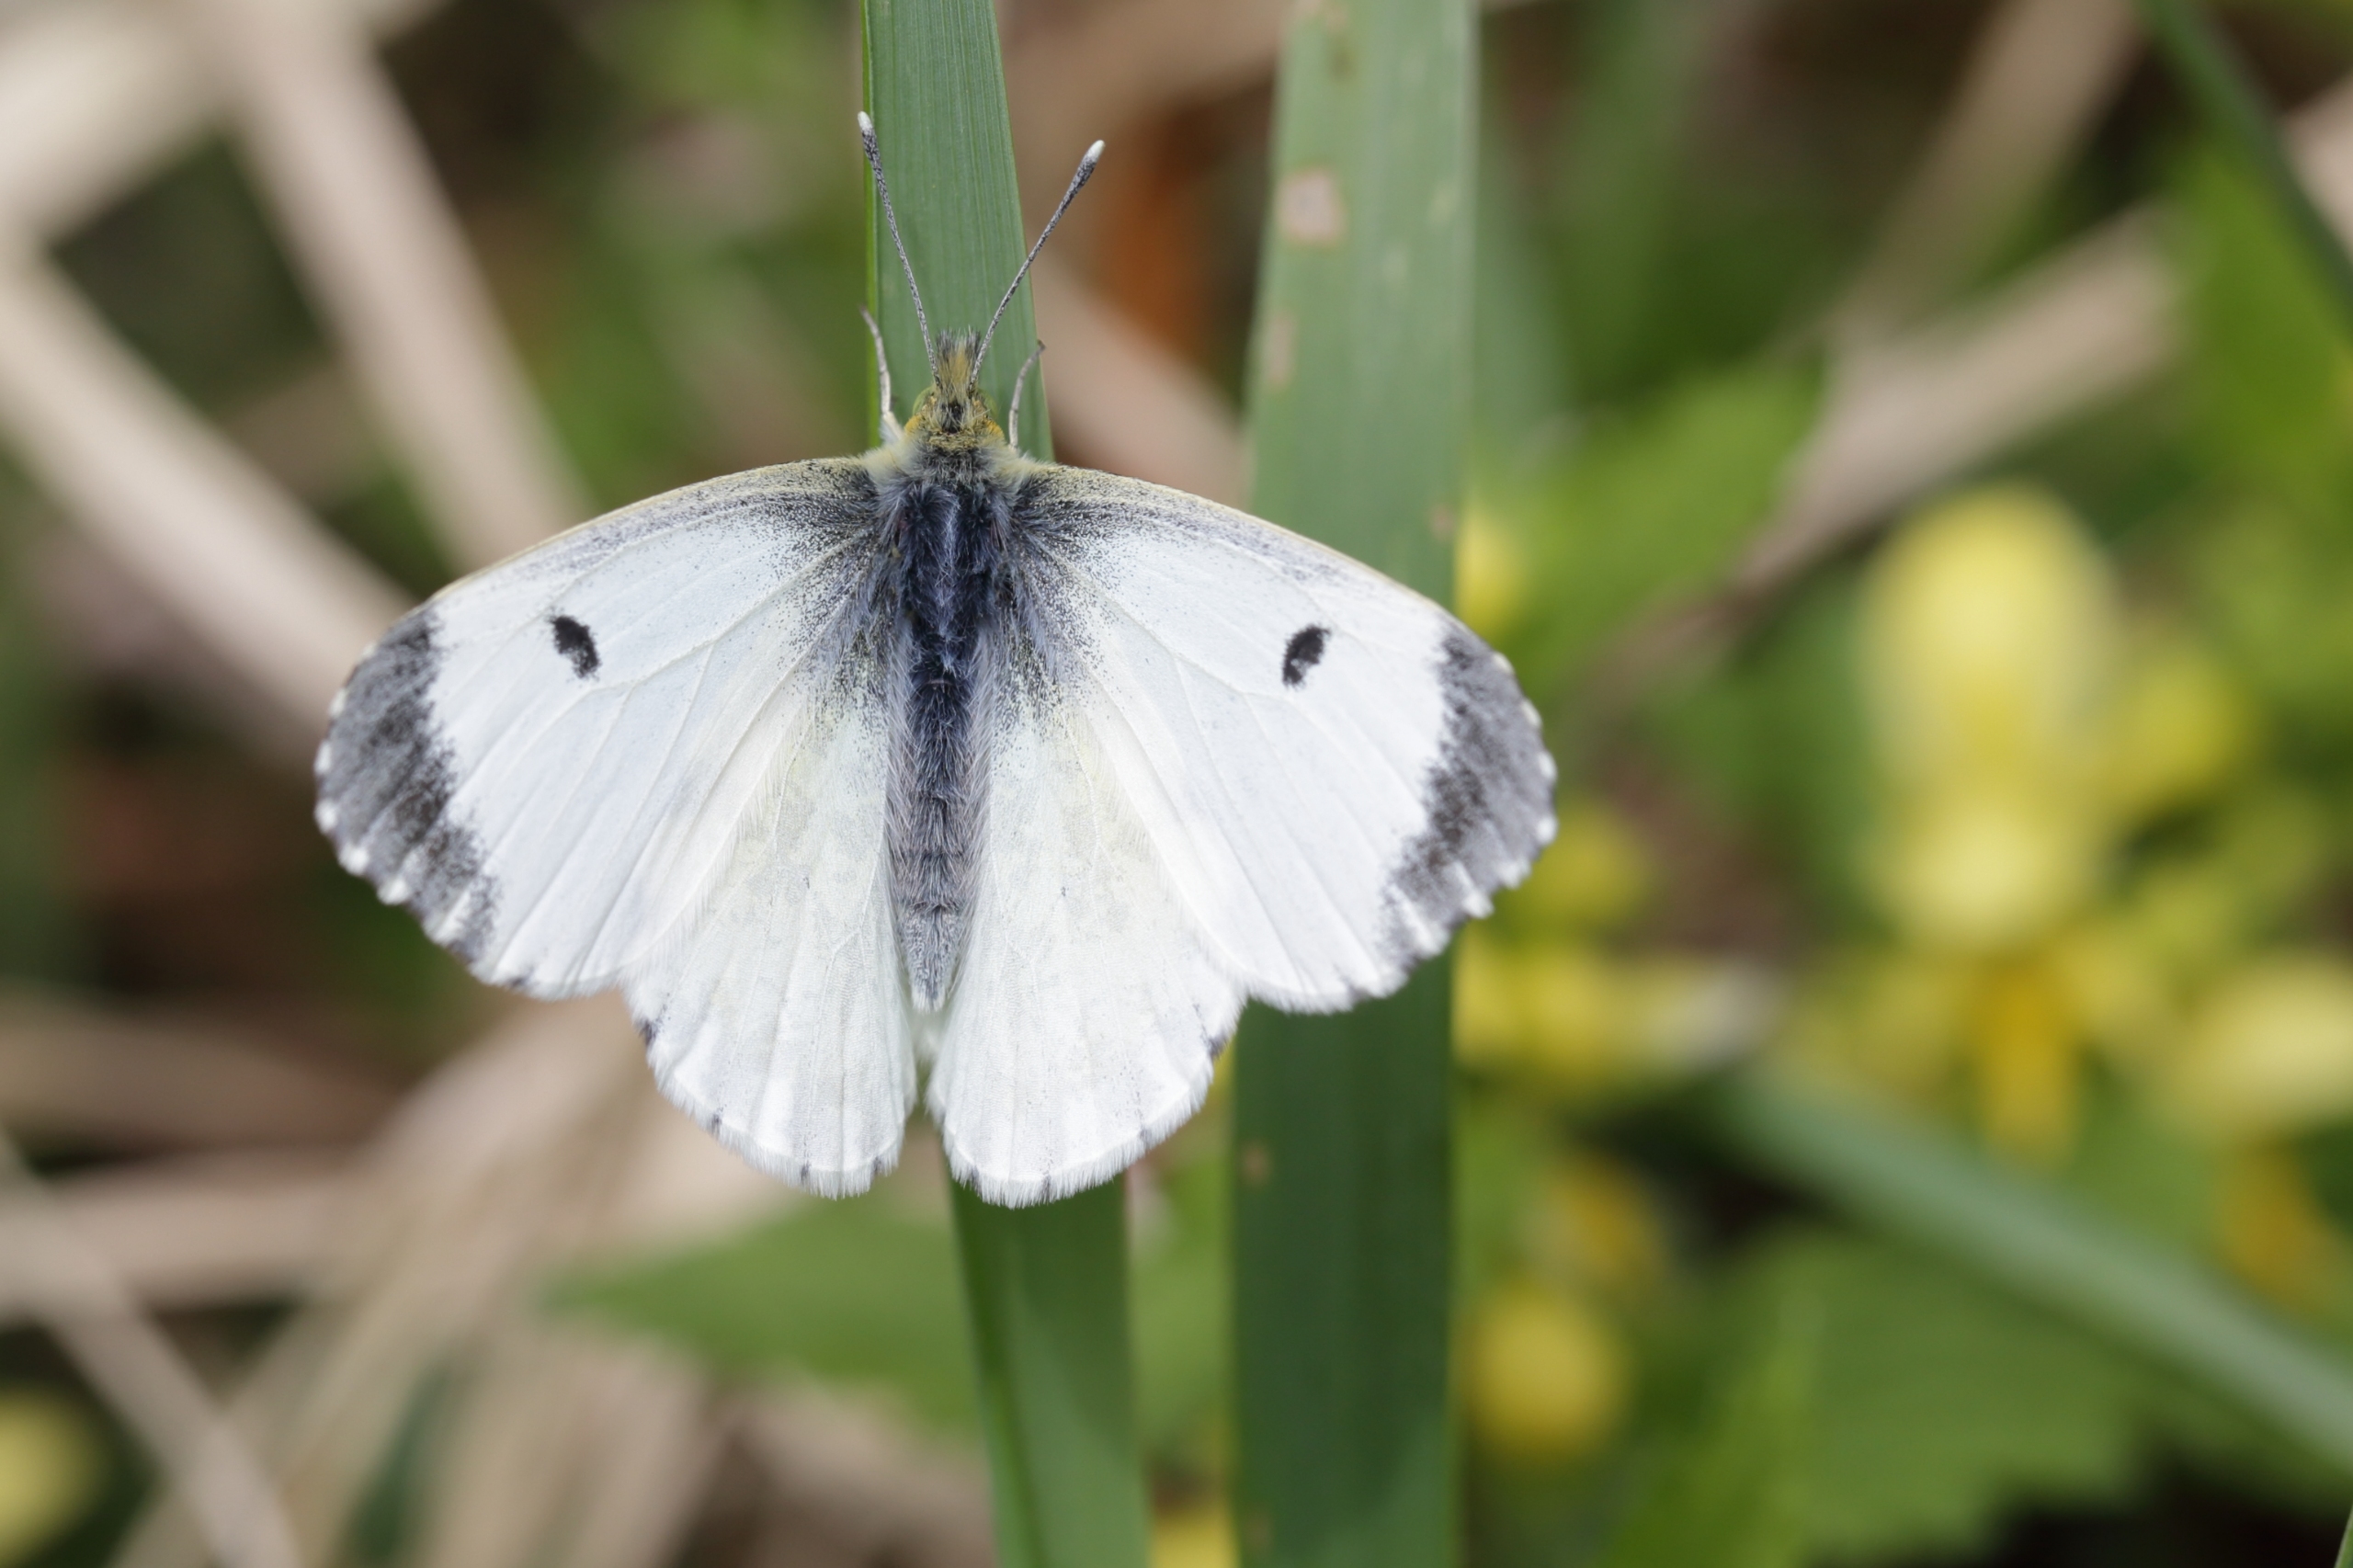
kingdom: Animalia
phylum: Arthropoda
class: Insecta
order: Lepidoptera
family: Pieridae
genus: Anthocharis
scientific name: Anthocharis cardamines
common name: Aurora
